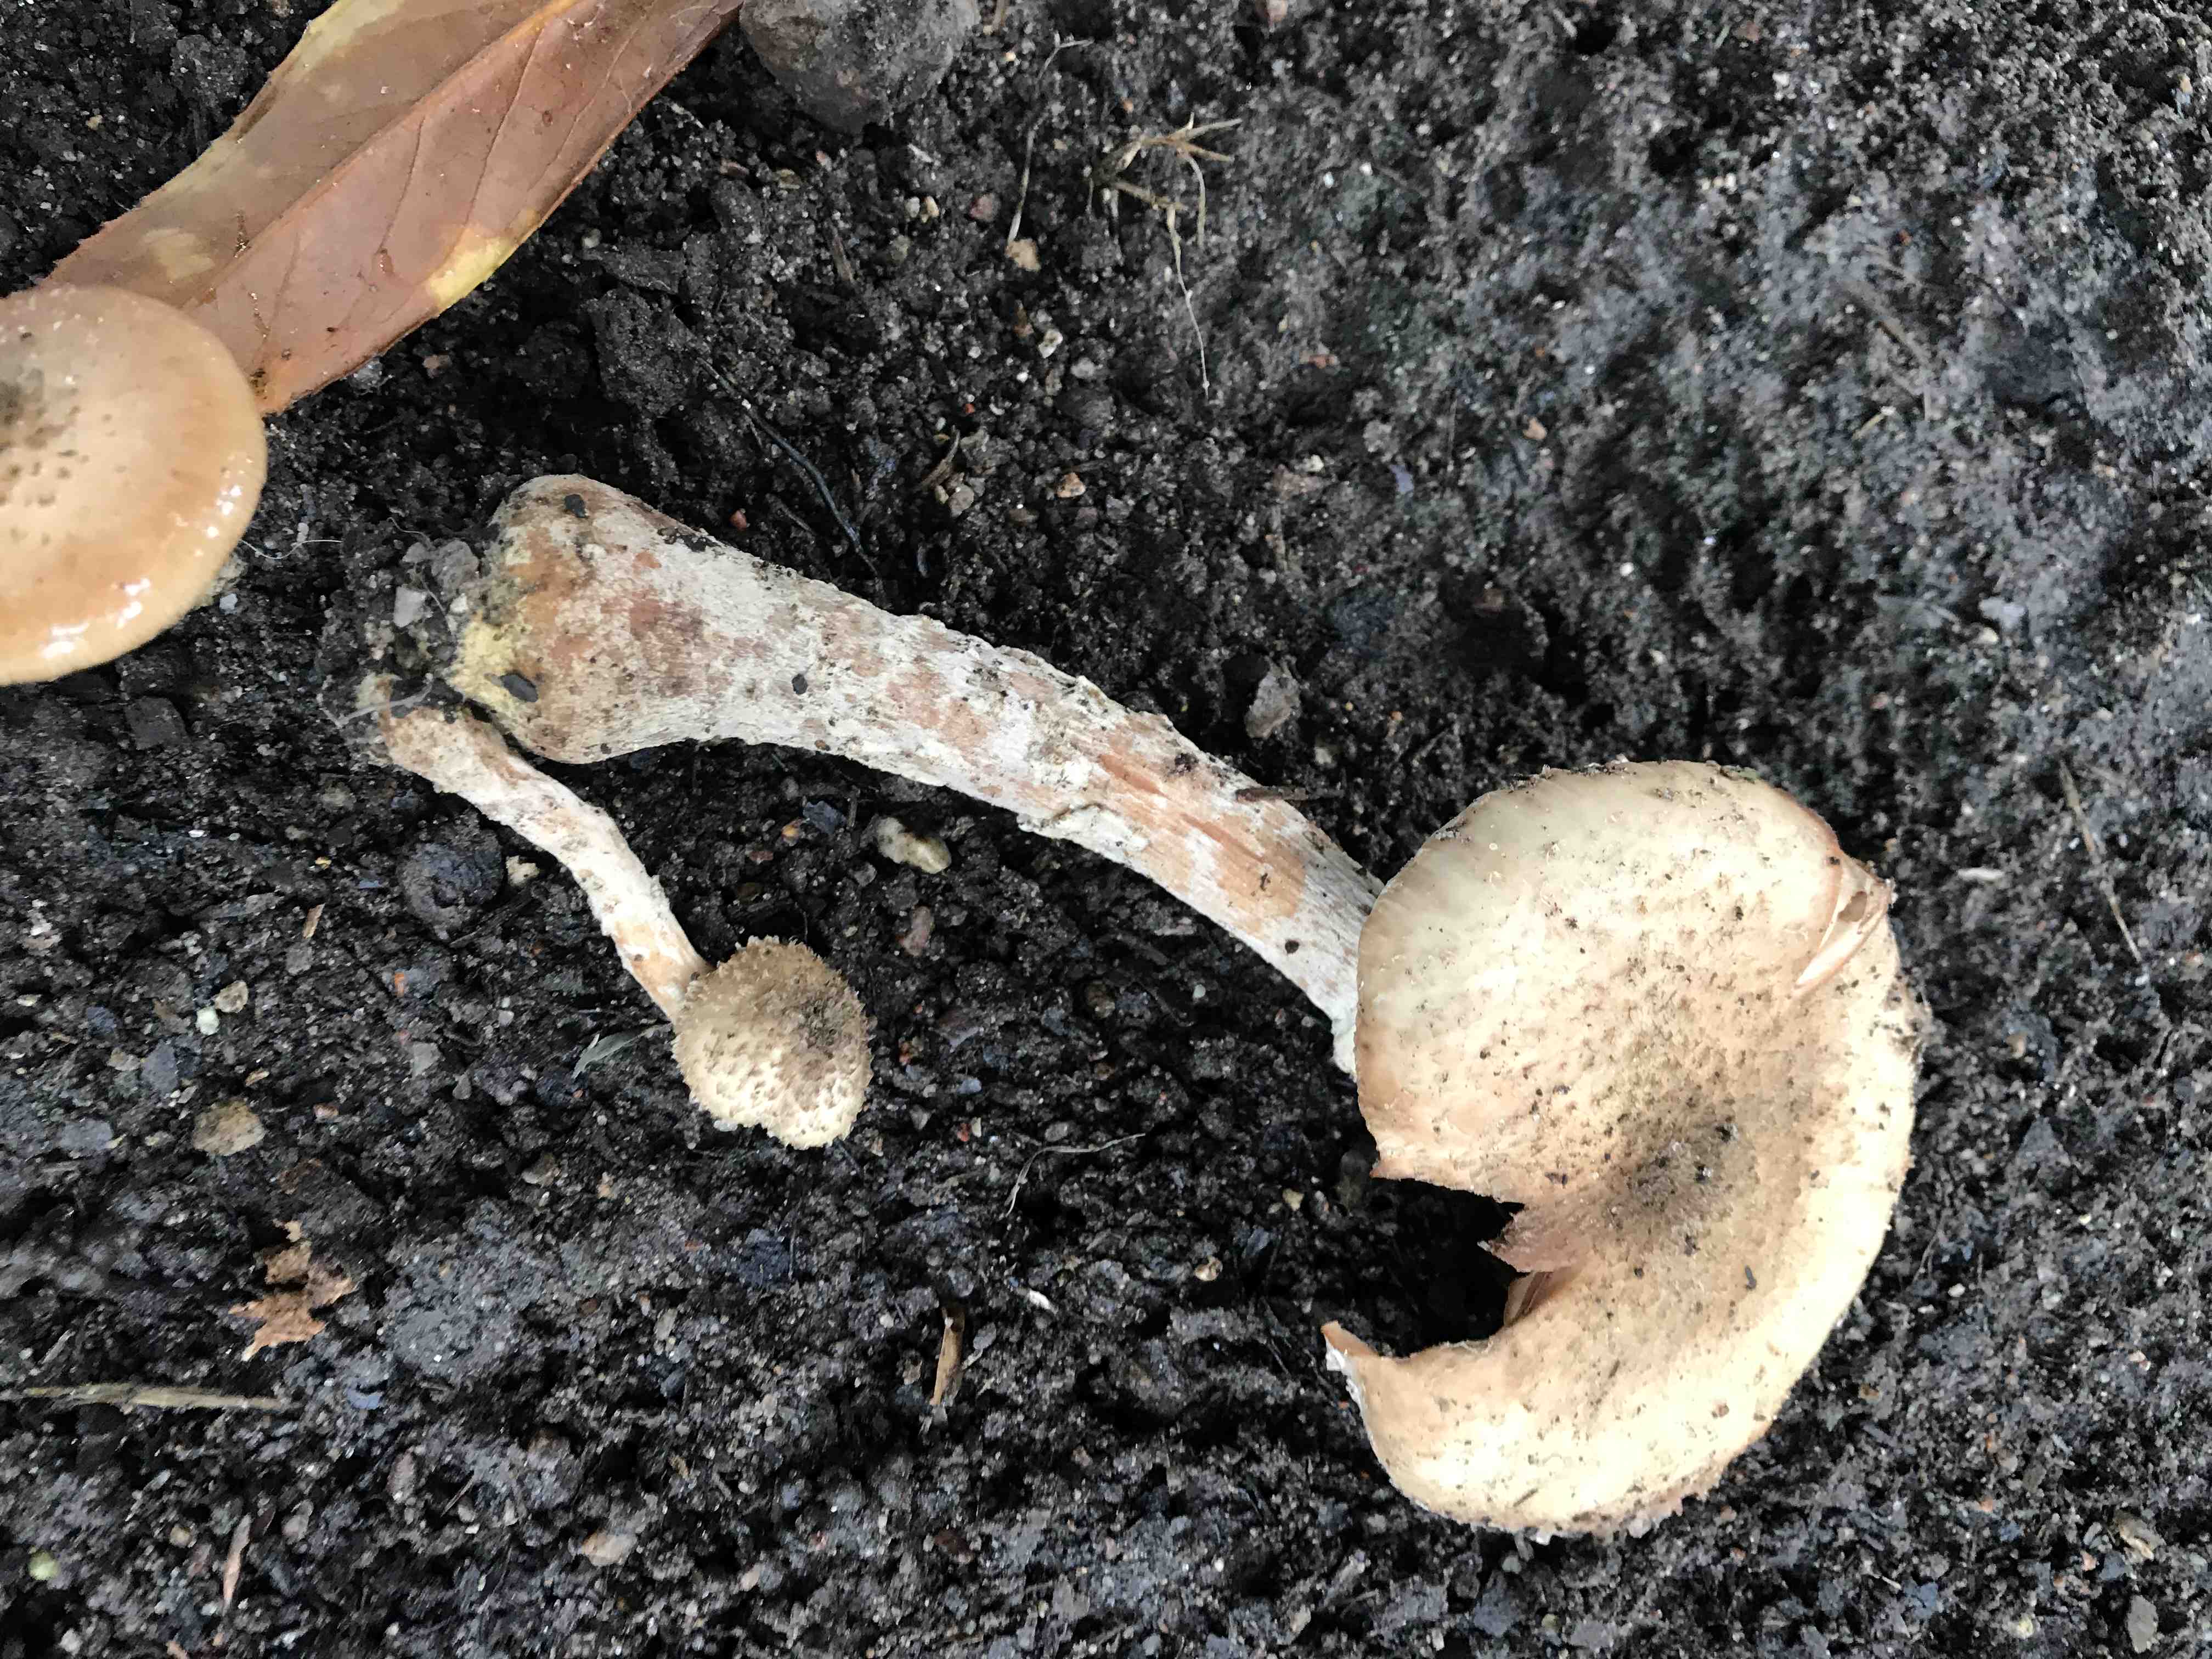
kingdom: Fungi
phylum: Basidiomycota
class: Agaricomycetes
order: Agaricales
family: Physalacriaceae
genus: Armillaria
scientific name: Armillaria
